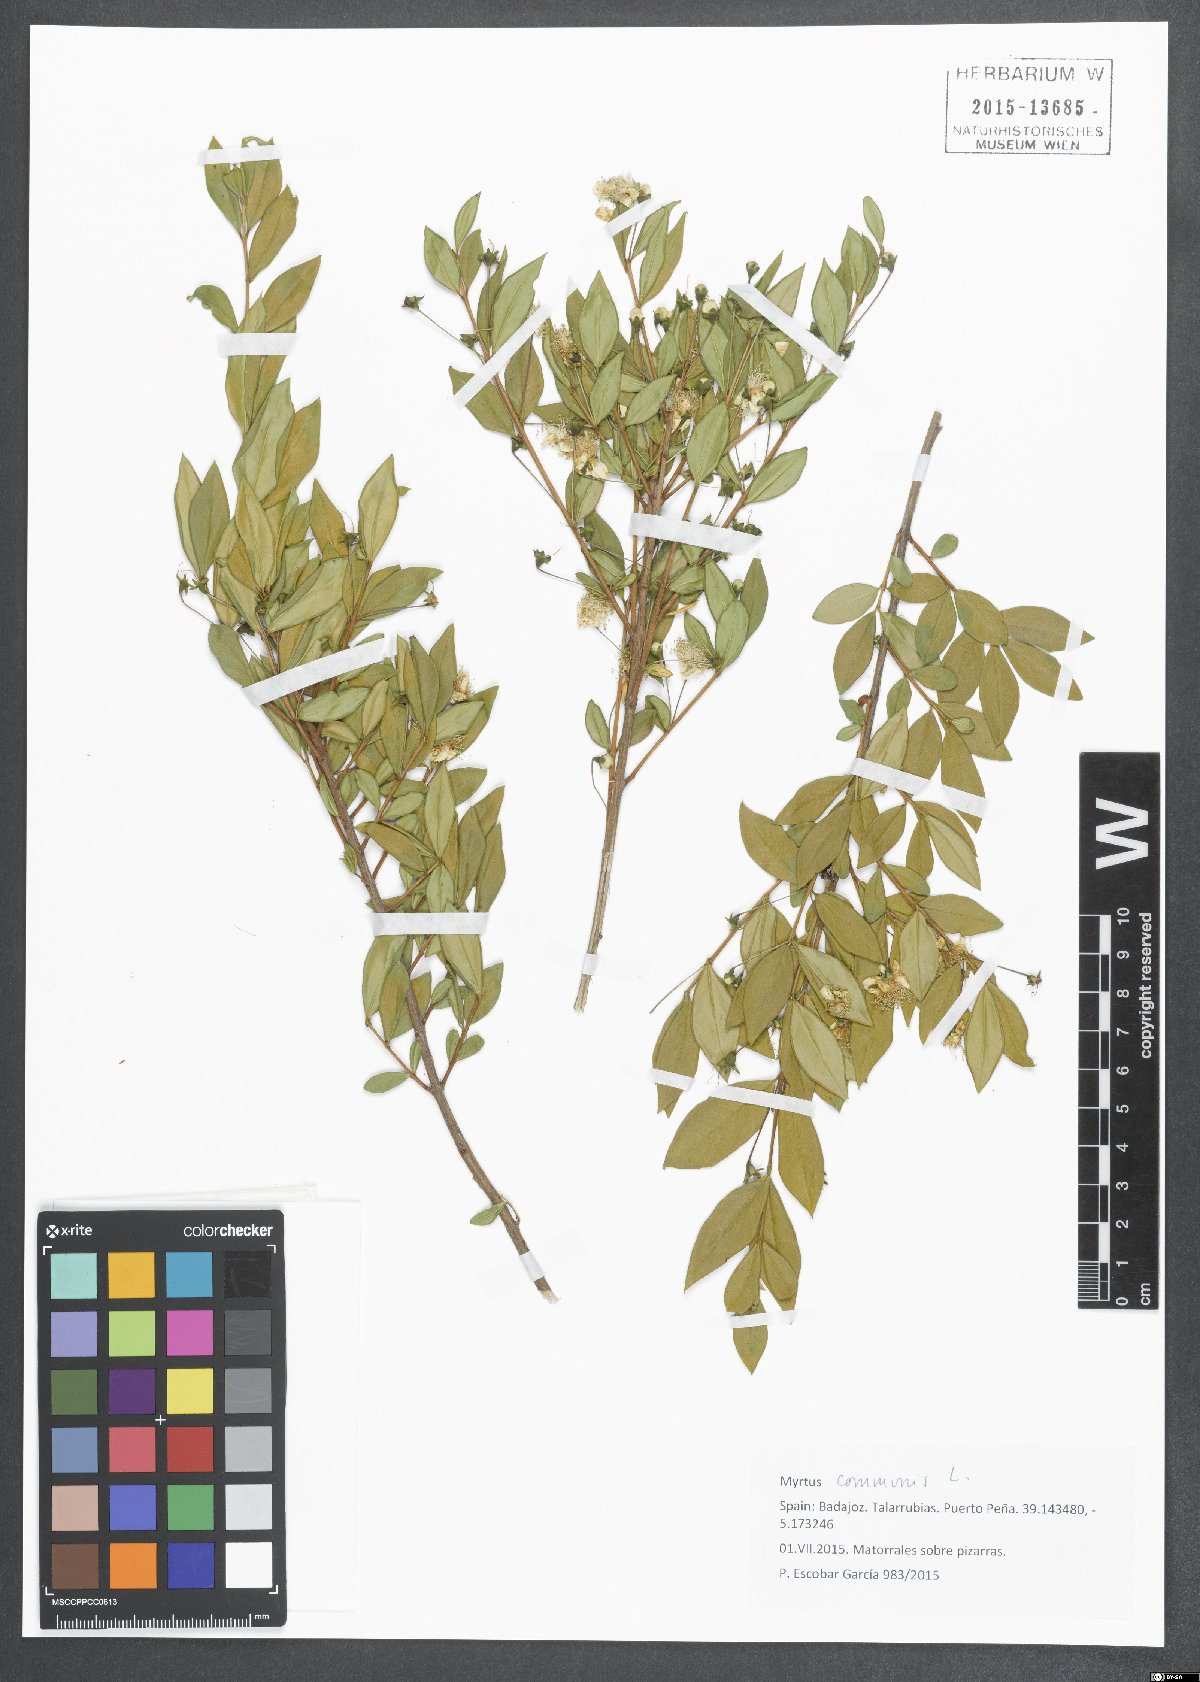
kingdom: Plantae
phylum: Tracheophyta
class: Magnoliopsida
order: Myrtales
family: Myrtaceae
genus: Myrtus
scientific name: Myrtus communis
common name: Myrtle
